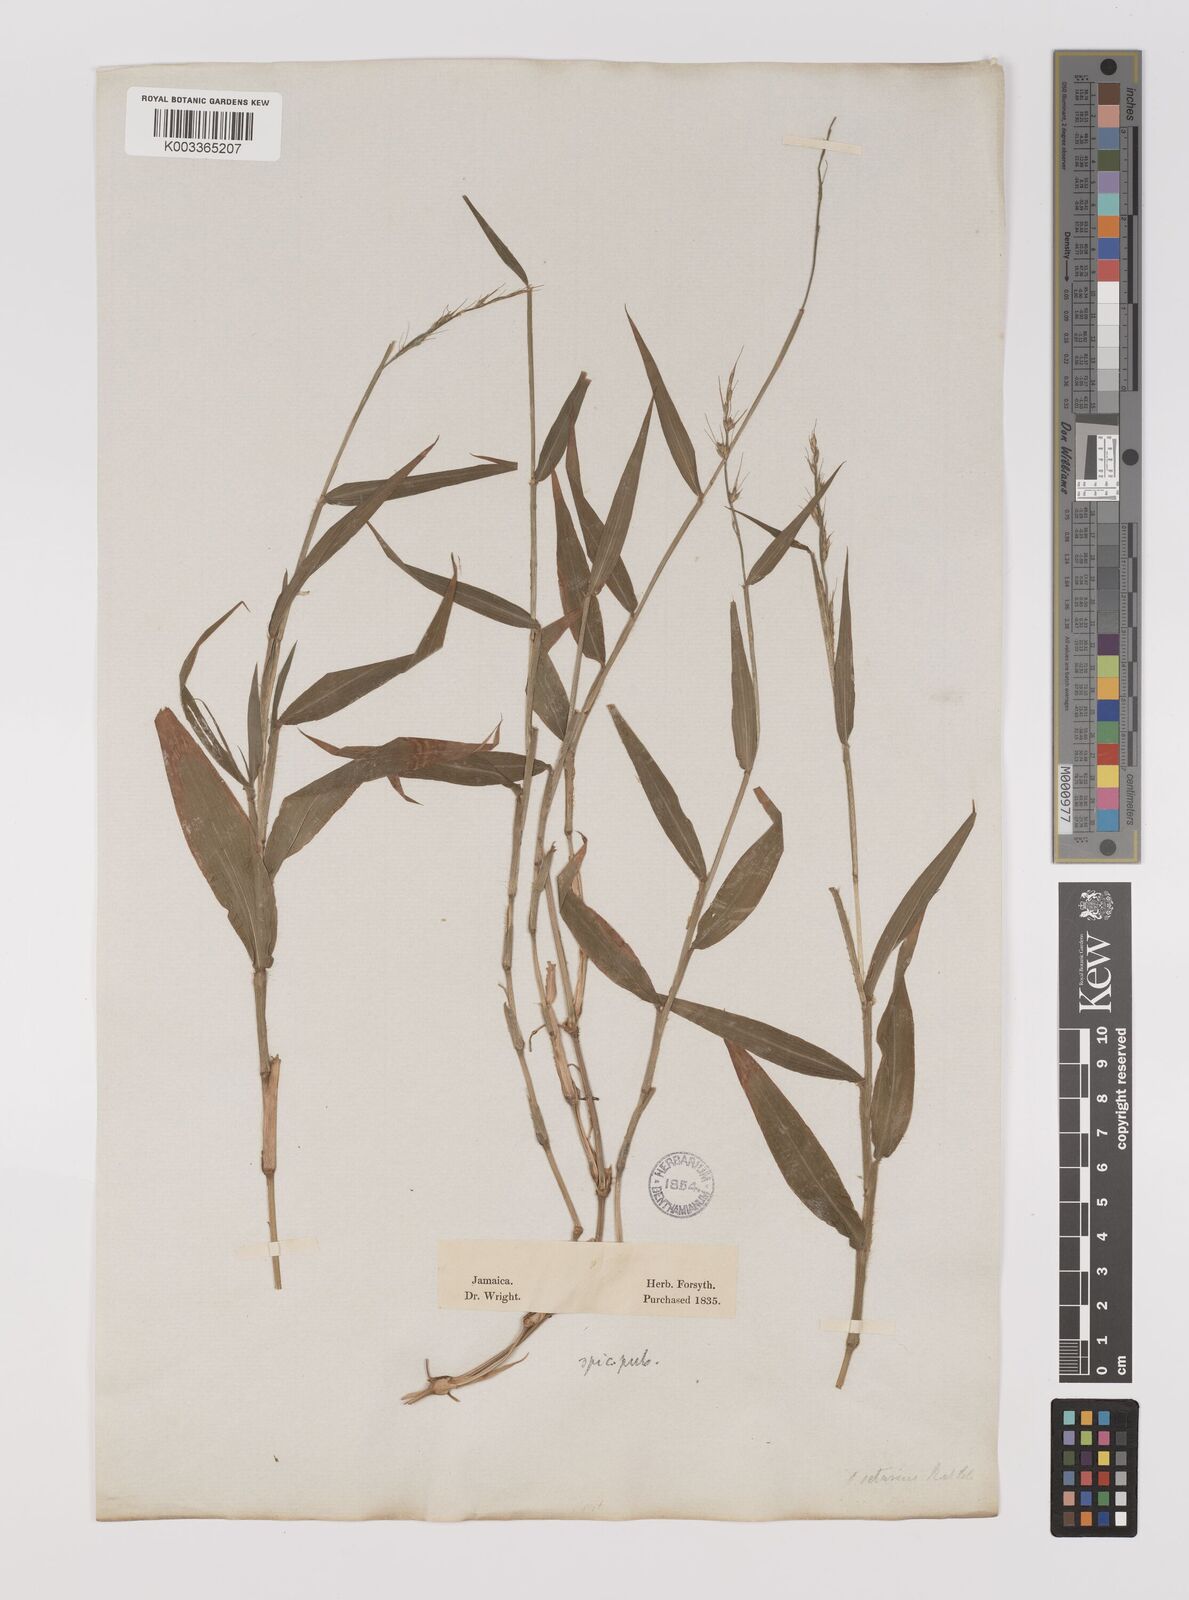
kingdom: Plantae
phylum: Tracheophyta
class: Liliopsida
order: Poales
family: Poaceae
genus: Oplismenus
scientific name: Oplismenus hirtellus
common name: Basketgrass
